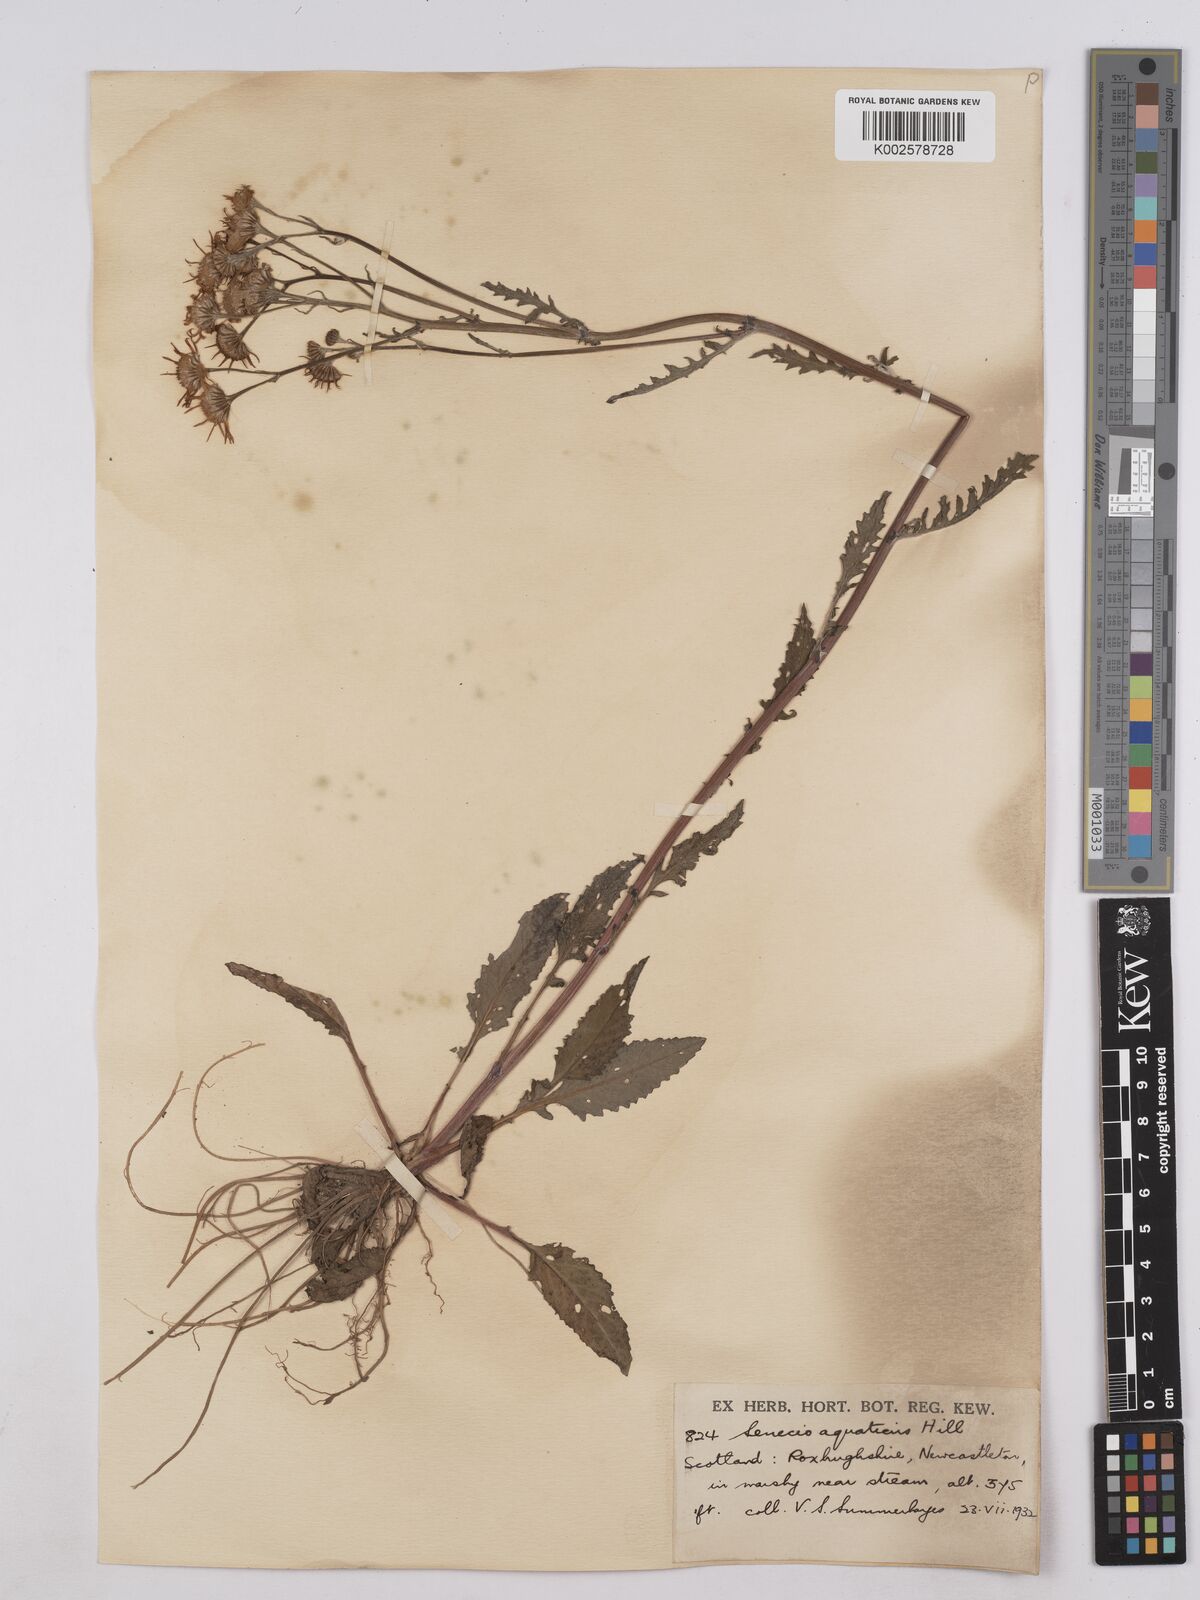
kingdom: Plantae
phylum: Tracheophyta
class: Magnoliopsida
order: Asterales
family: Asteraceae
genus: Jacobaea
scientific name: Jacobaea aquatica
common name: Water ragwort
